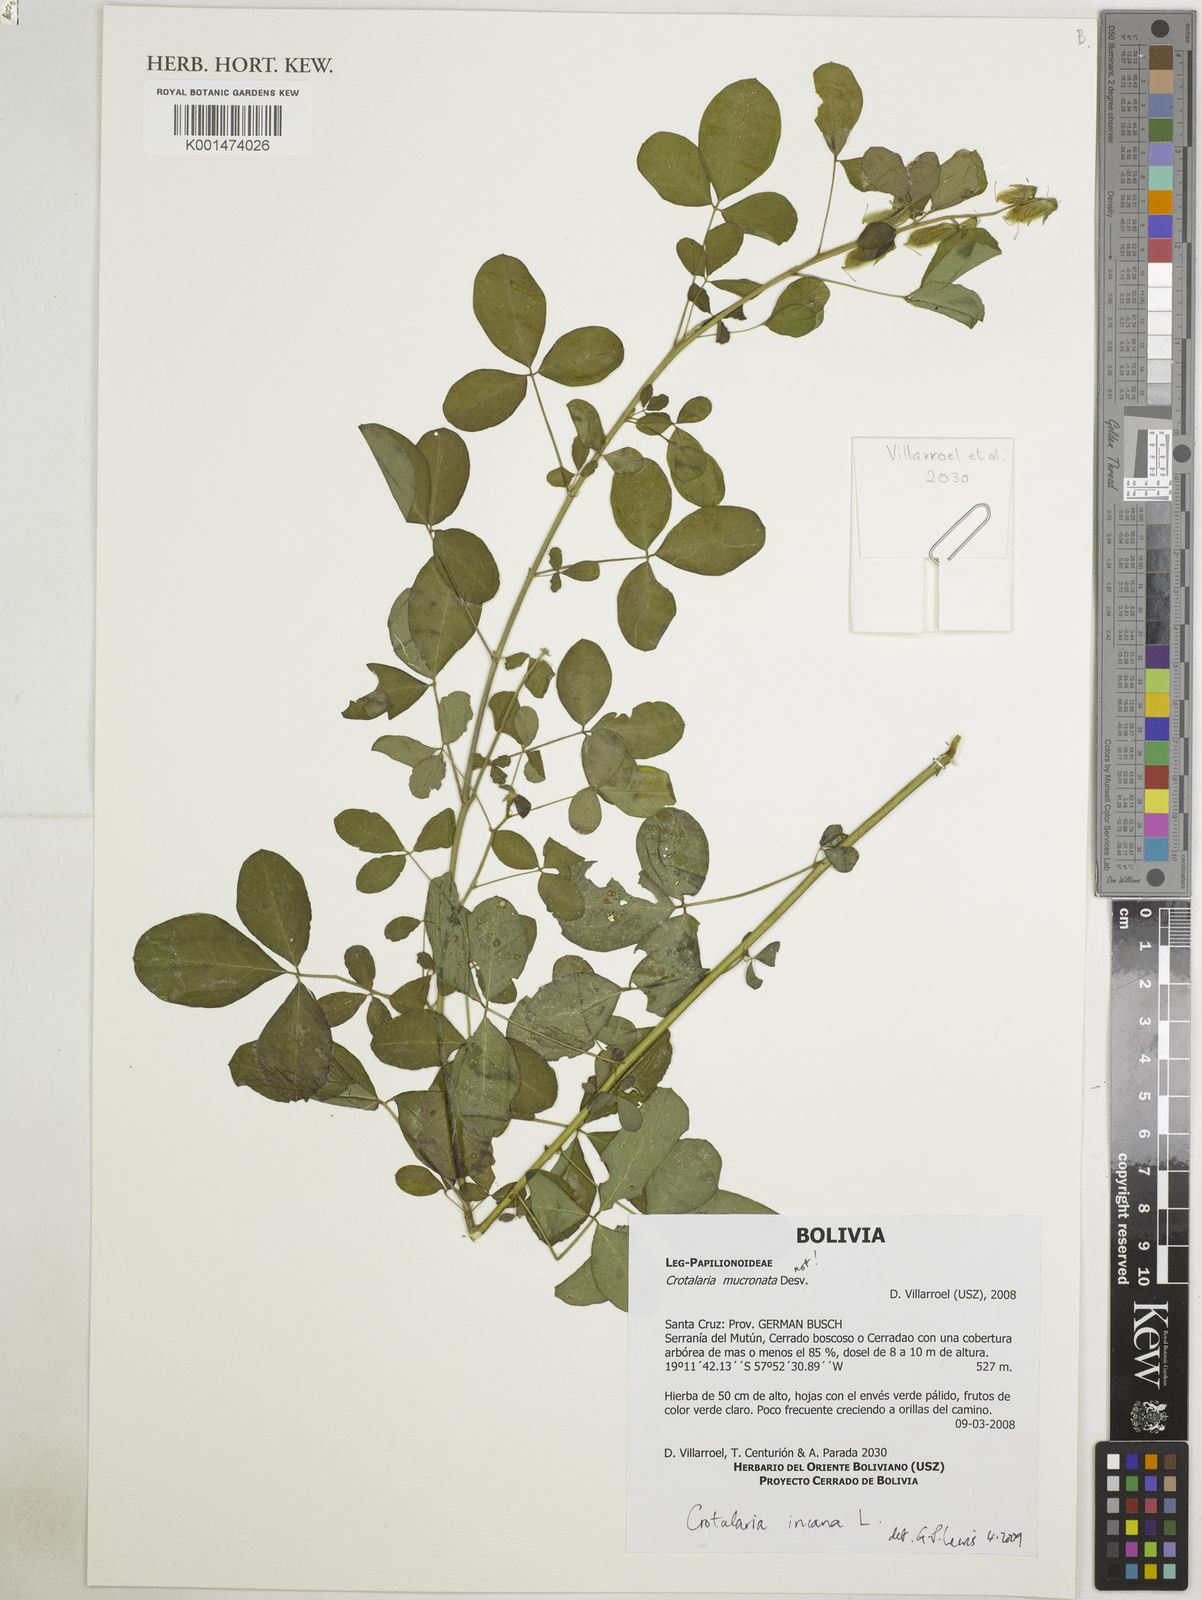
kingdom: Plantae
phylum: Tracheophyta
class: Magnoliopsida
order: Fabales
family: Fabaceae
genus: Crotalaria
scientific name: Crotalaria pallida
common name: Smooth rattlebox
